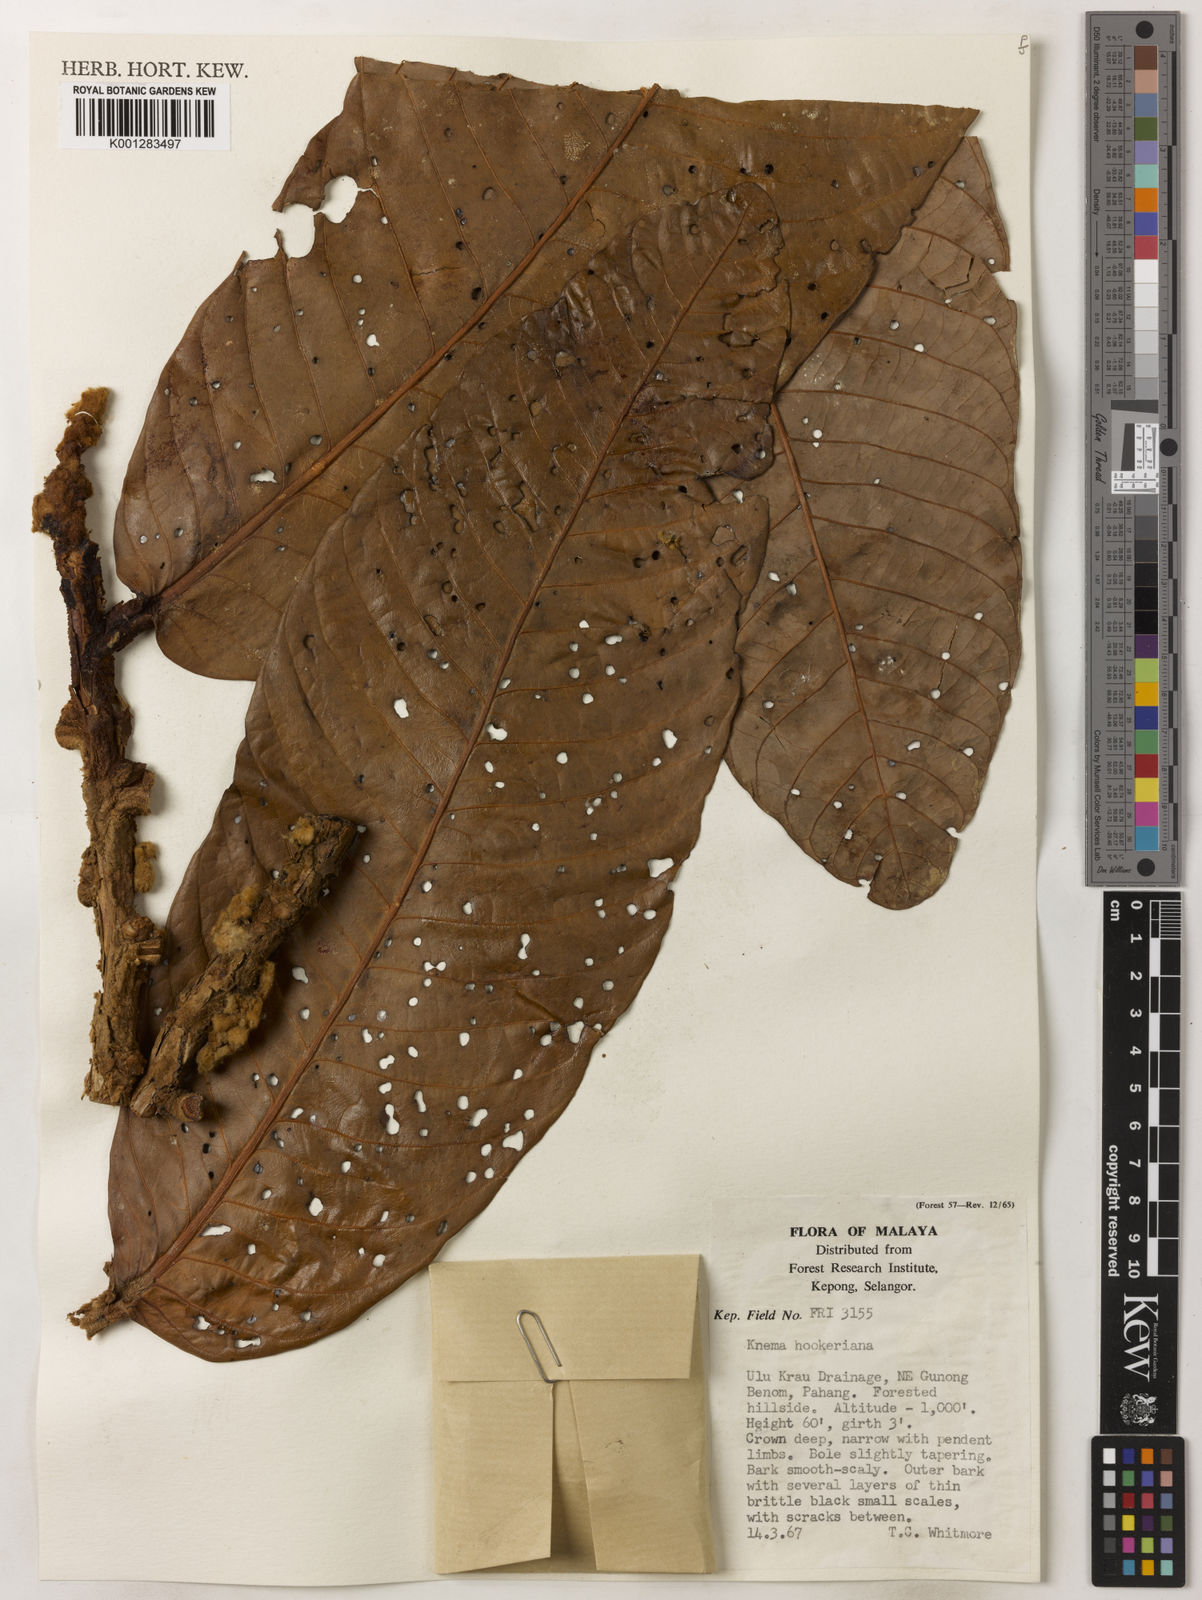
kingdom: Plantae
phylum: Tracheophyta
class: Magnoliopsida
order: Magnoliales
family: Myristicaceae
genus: Knema
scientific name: Knema hookeriana
